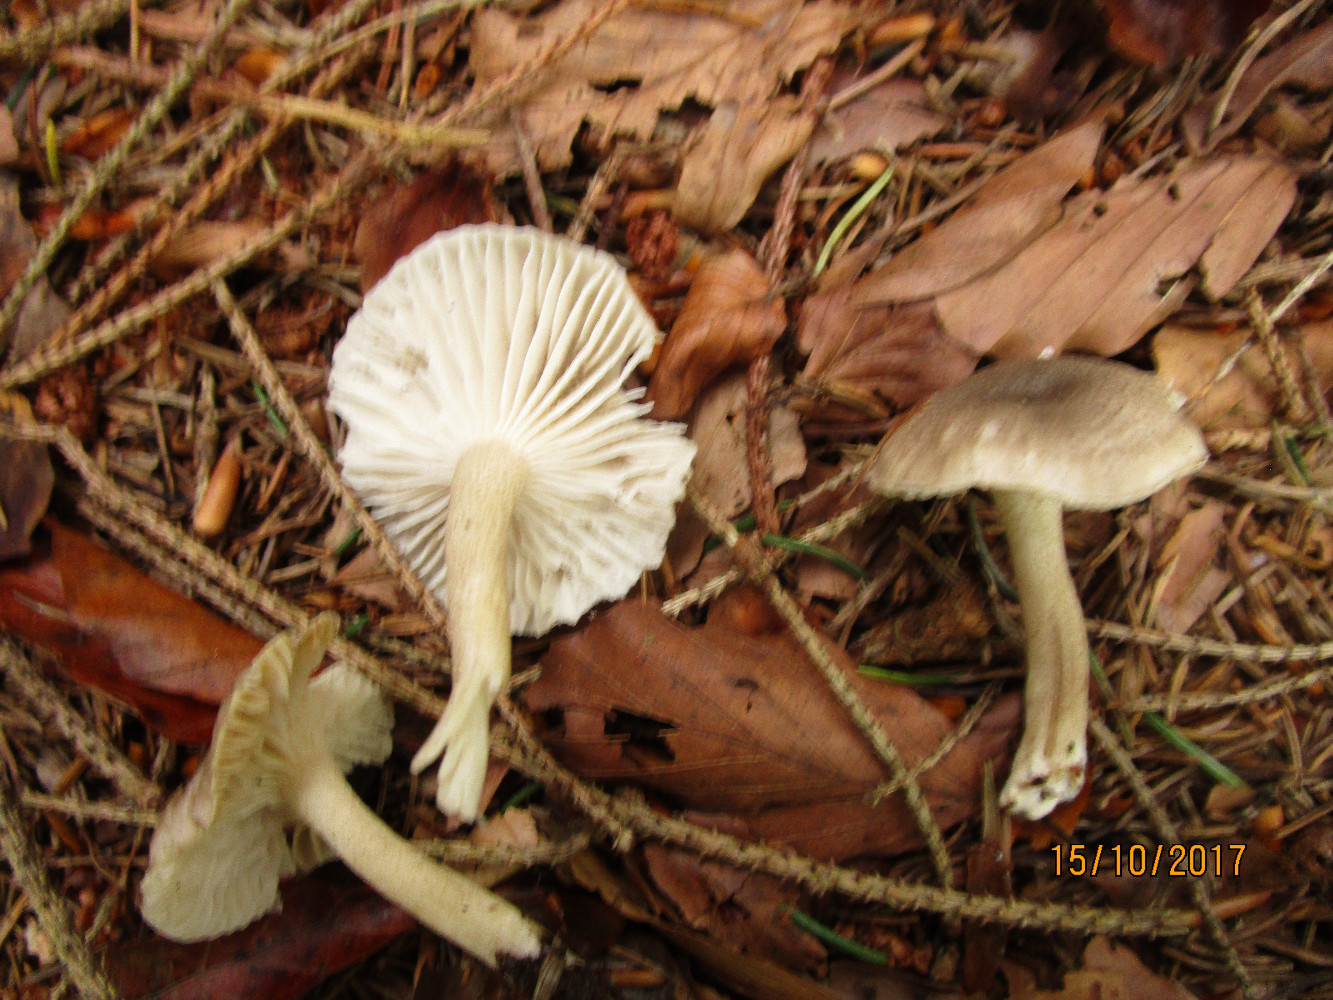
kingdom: Fungi
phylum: Basidiomycota
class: Agaricomycetes
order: Agaricales
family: Hygrophoraceae
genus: Hygrophorus
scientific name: Hygrophorus pustulatus
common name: mørkprikket sneglehat
